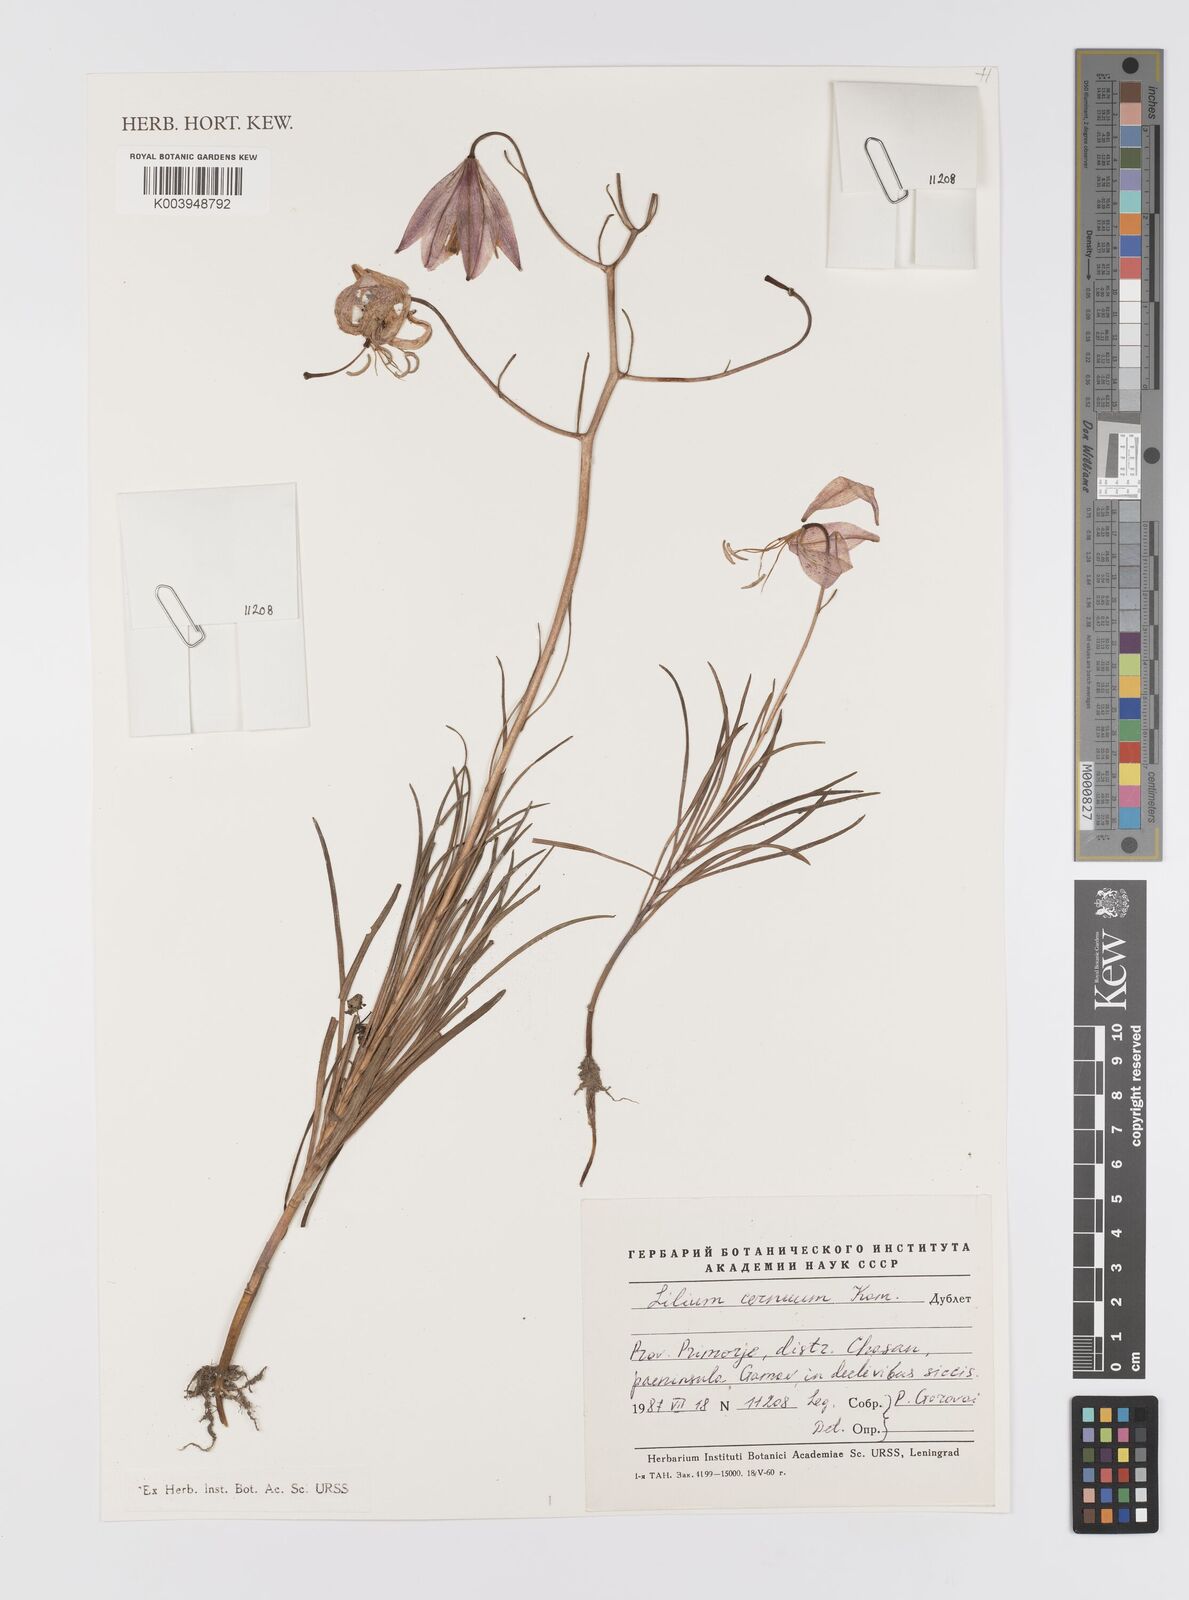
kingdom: Plantae
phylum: Tracheophyta
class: Liliopsida
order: Liliales
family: Liliaceae
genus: Lilium
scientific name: Lilium cernuum
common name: Nodding lily
